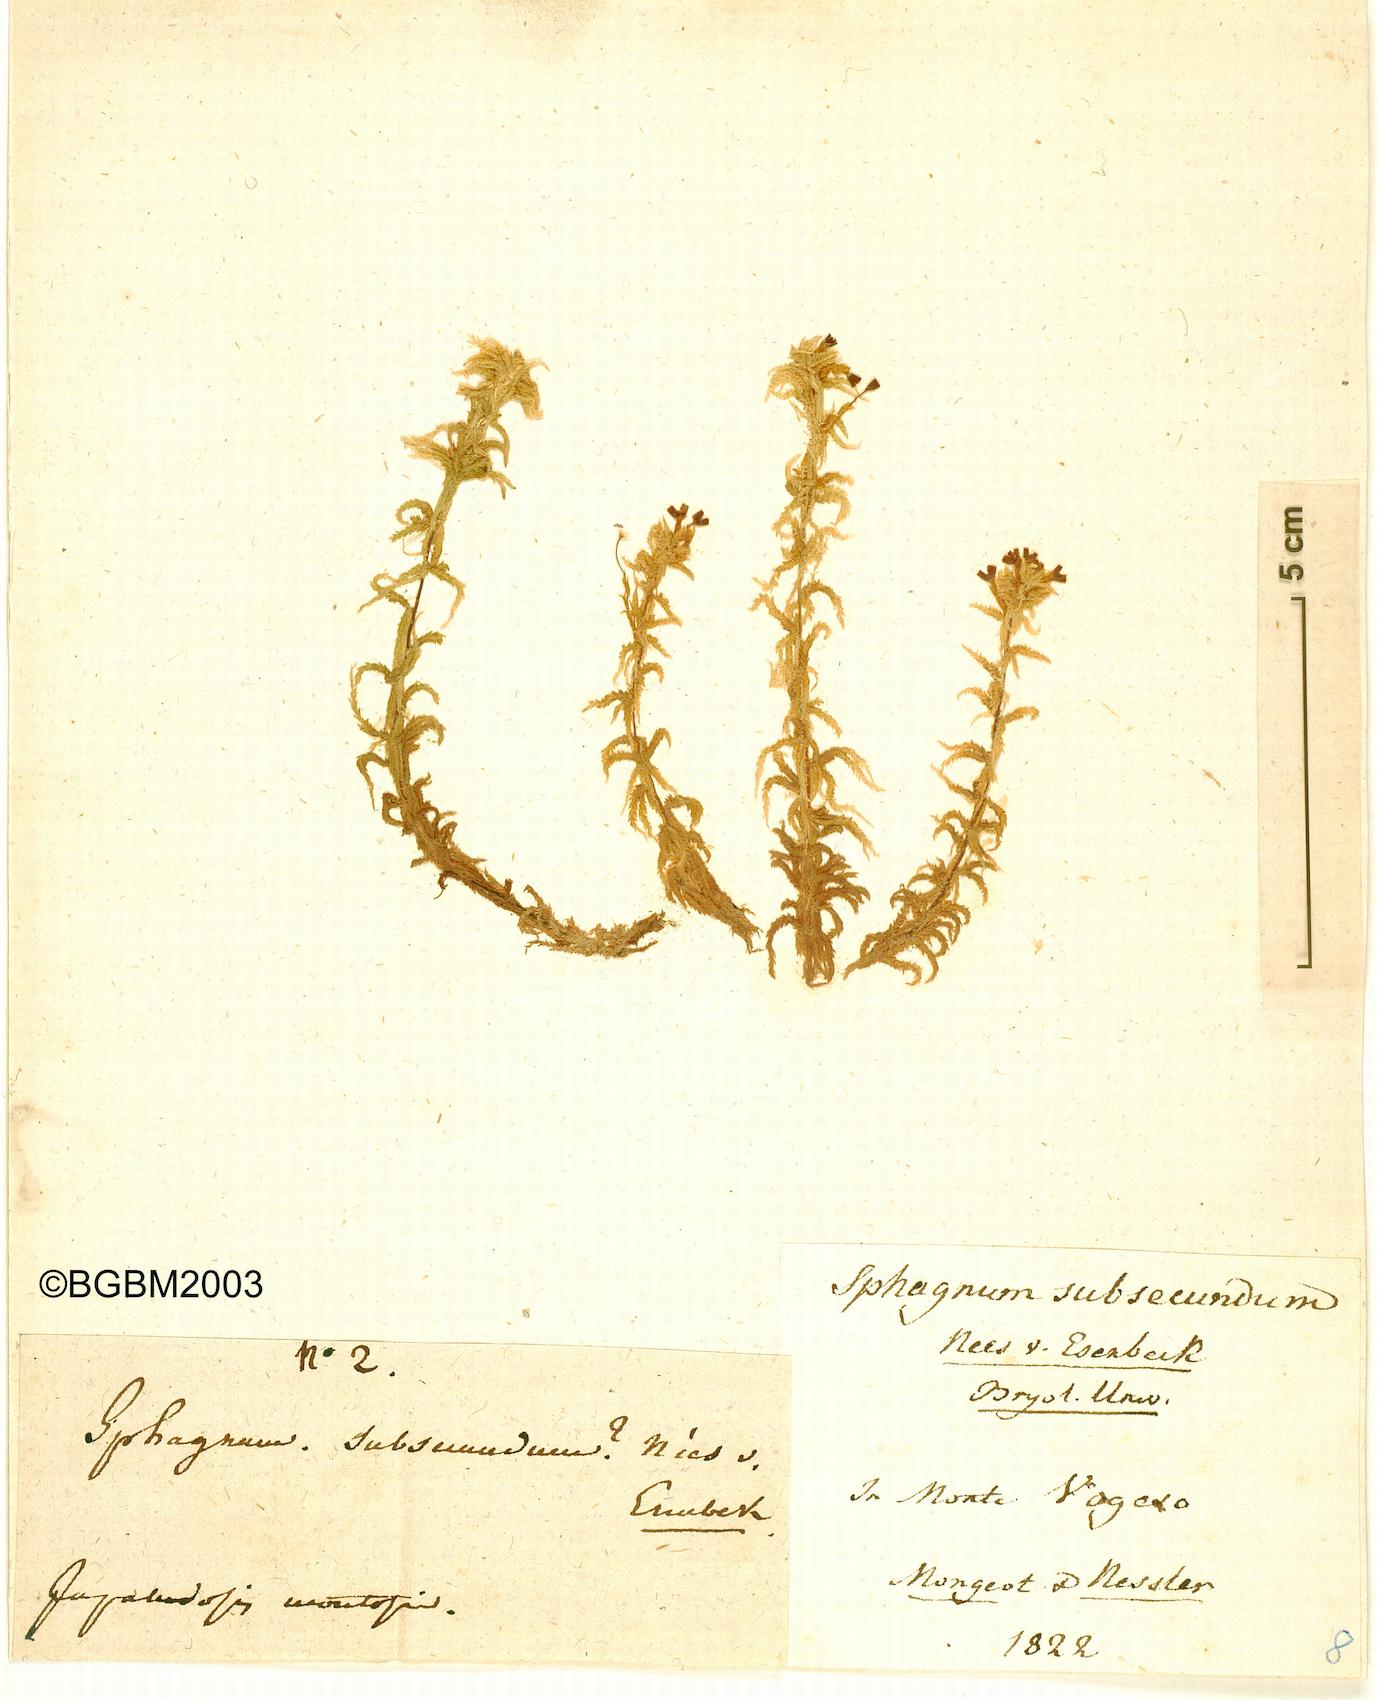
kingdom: Plantae
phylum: Bryophyta
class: Sphagnopsida
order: Sphagnales
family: Sphagnaceae
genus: Sphagnum
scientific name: Sphagnum subsecundum
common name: Orange peat moss
